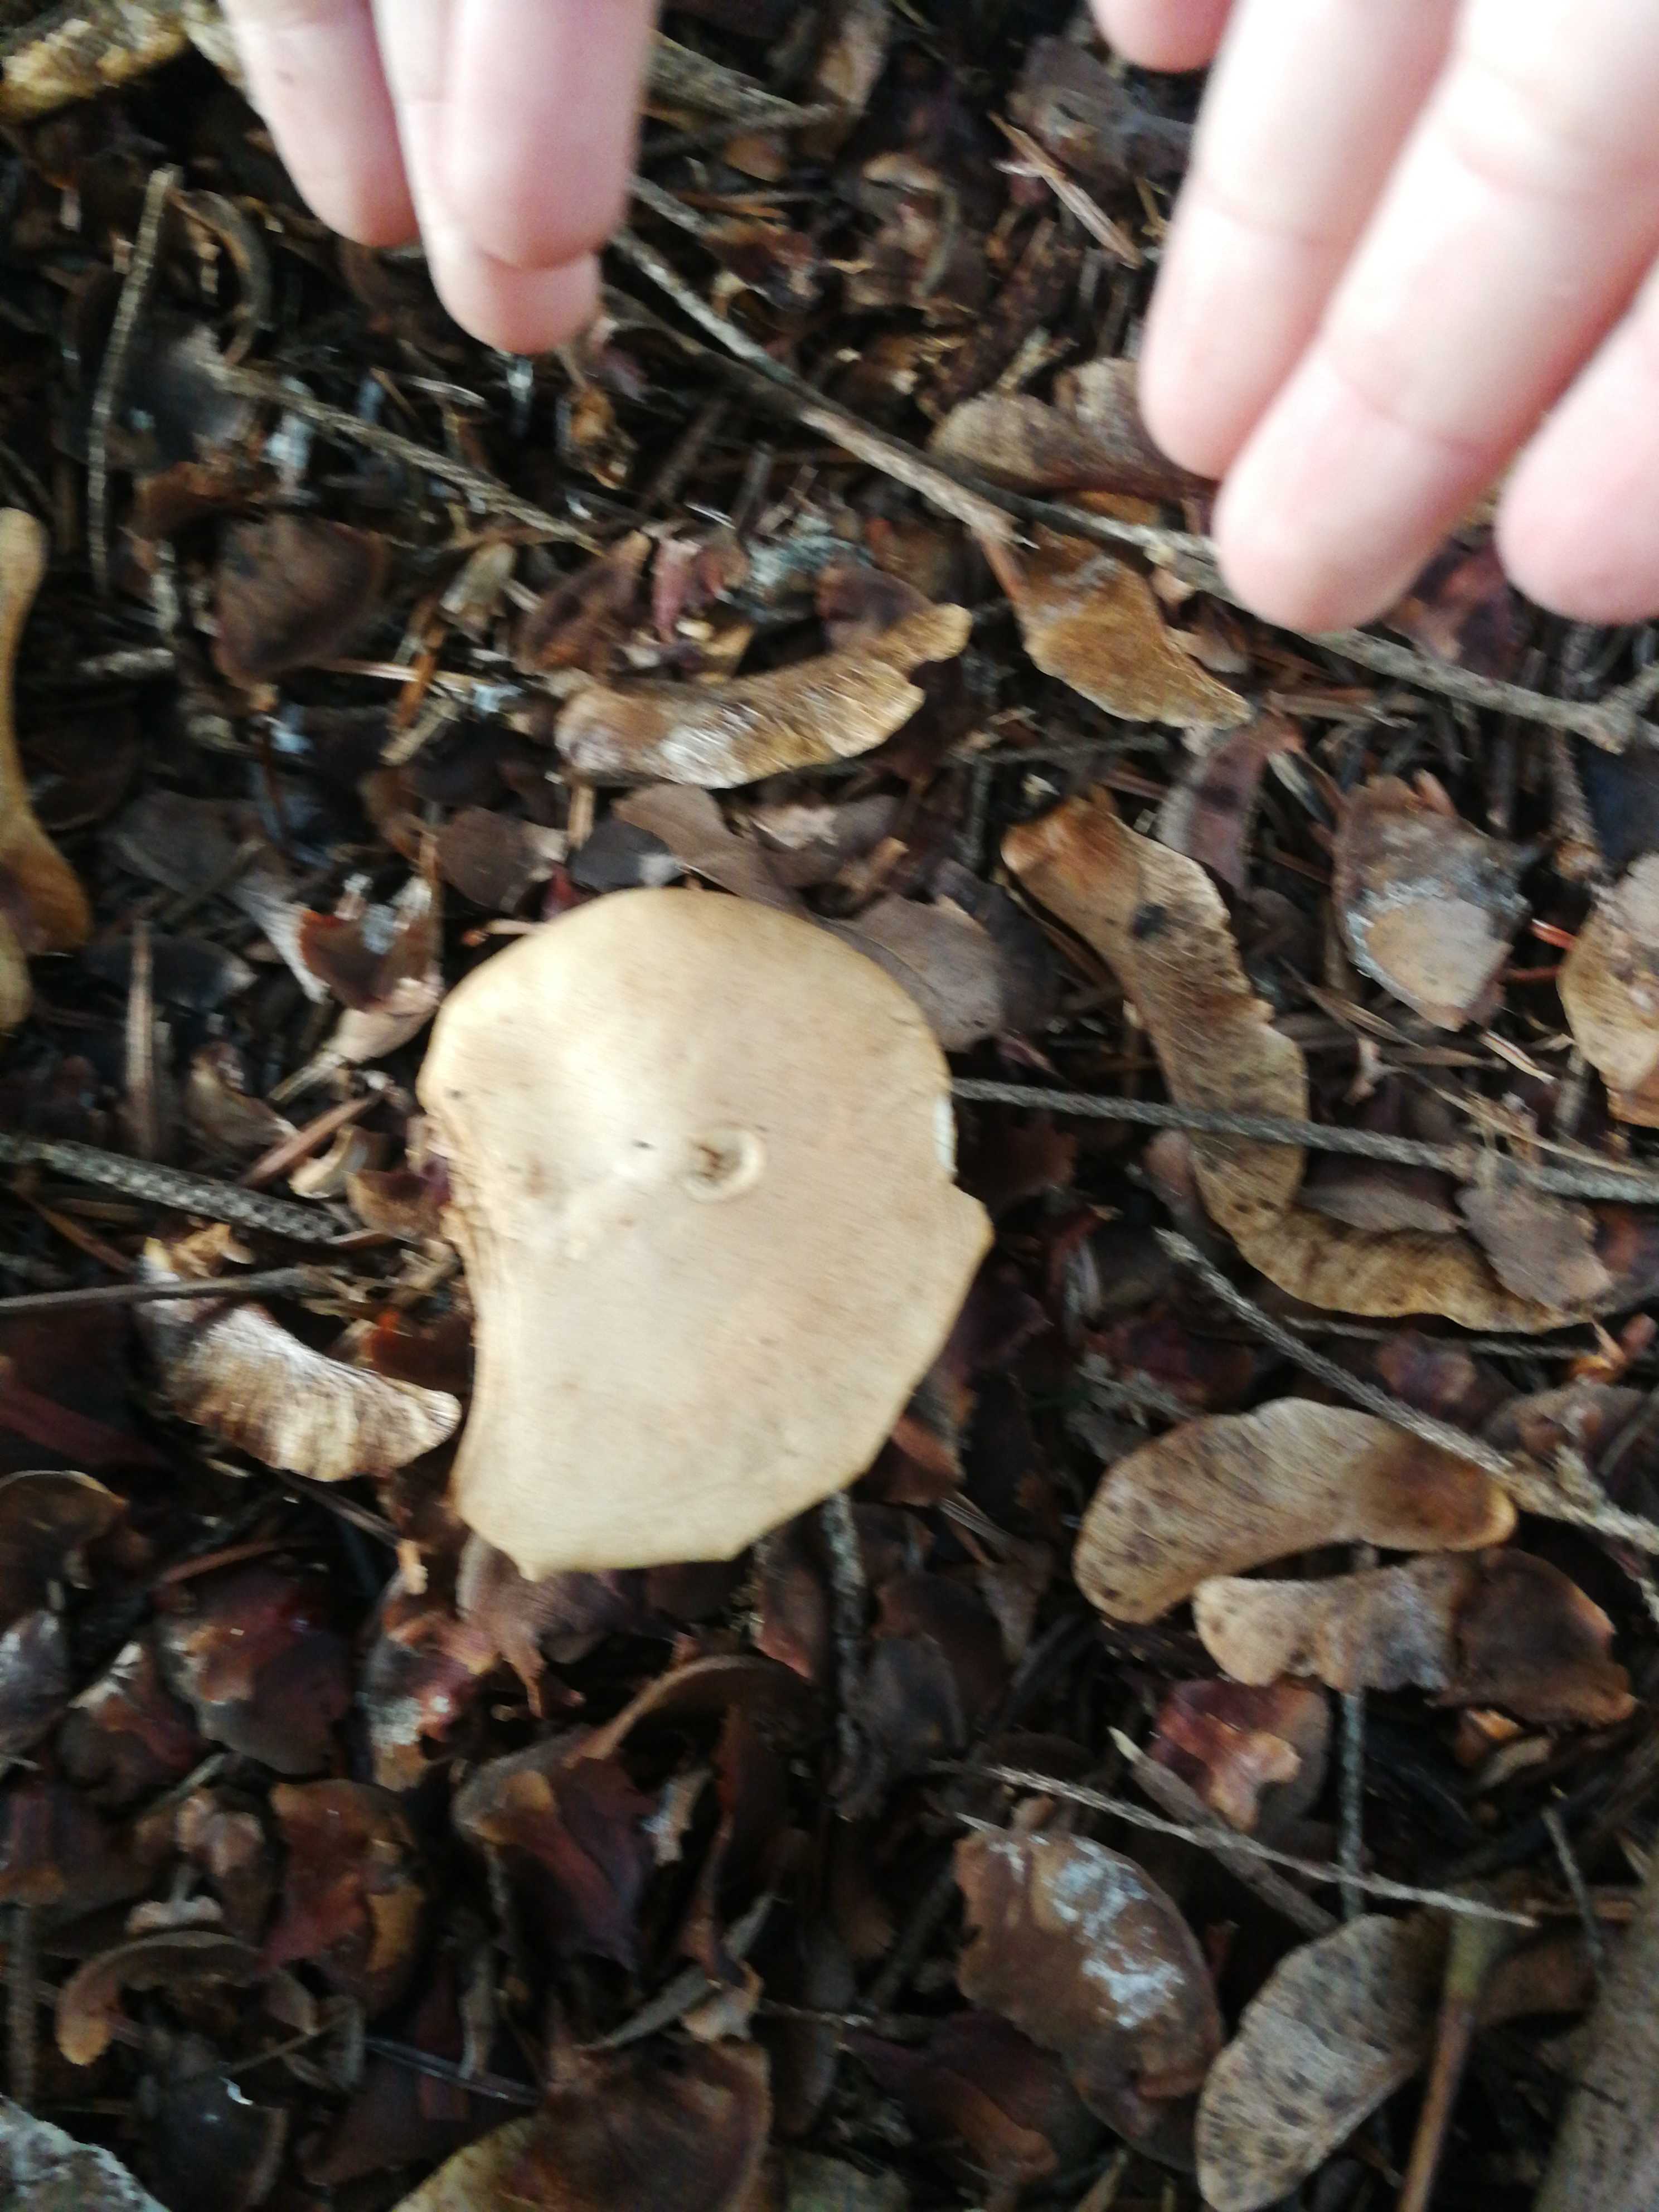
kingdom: Fungi
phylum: Basidiomycota
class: Agaricomycetes
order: Agaricales
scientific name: Agaricales
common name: champignonordenen
